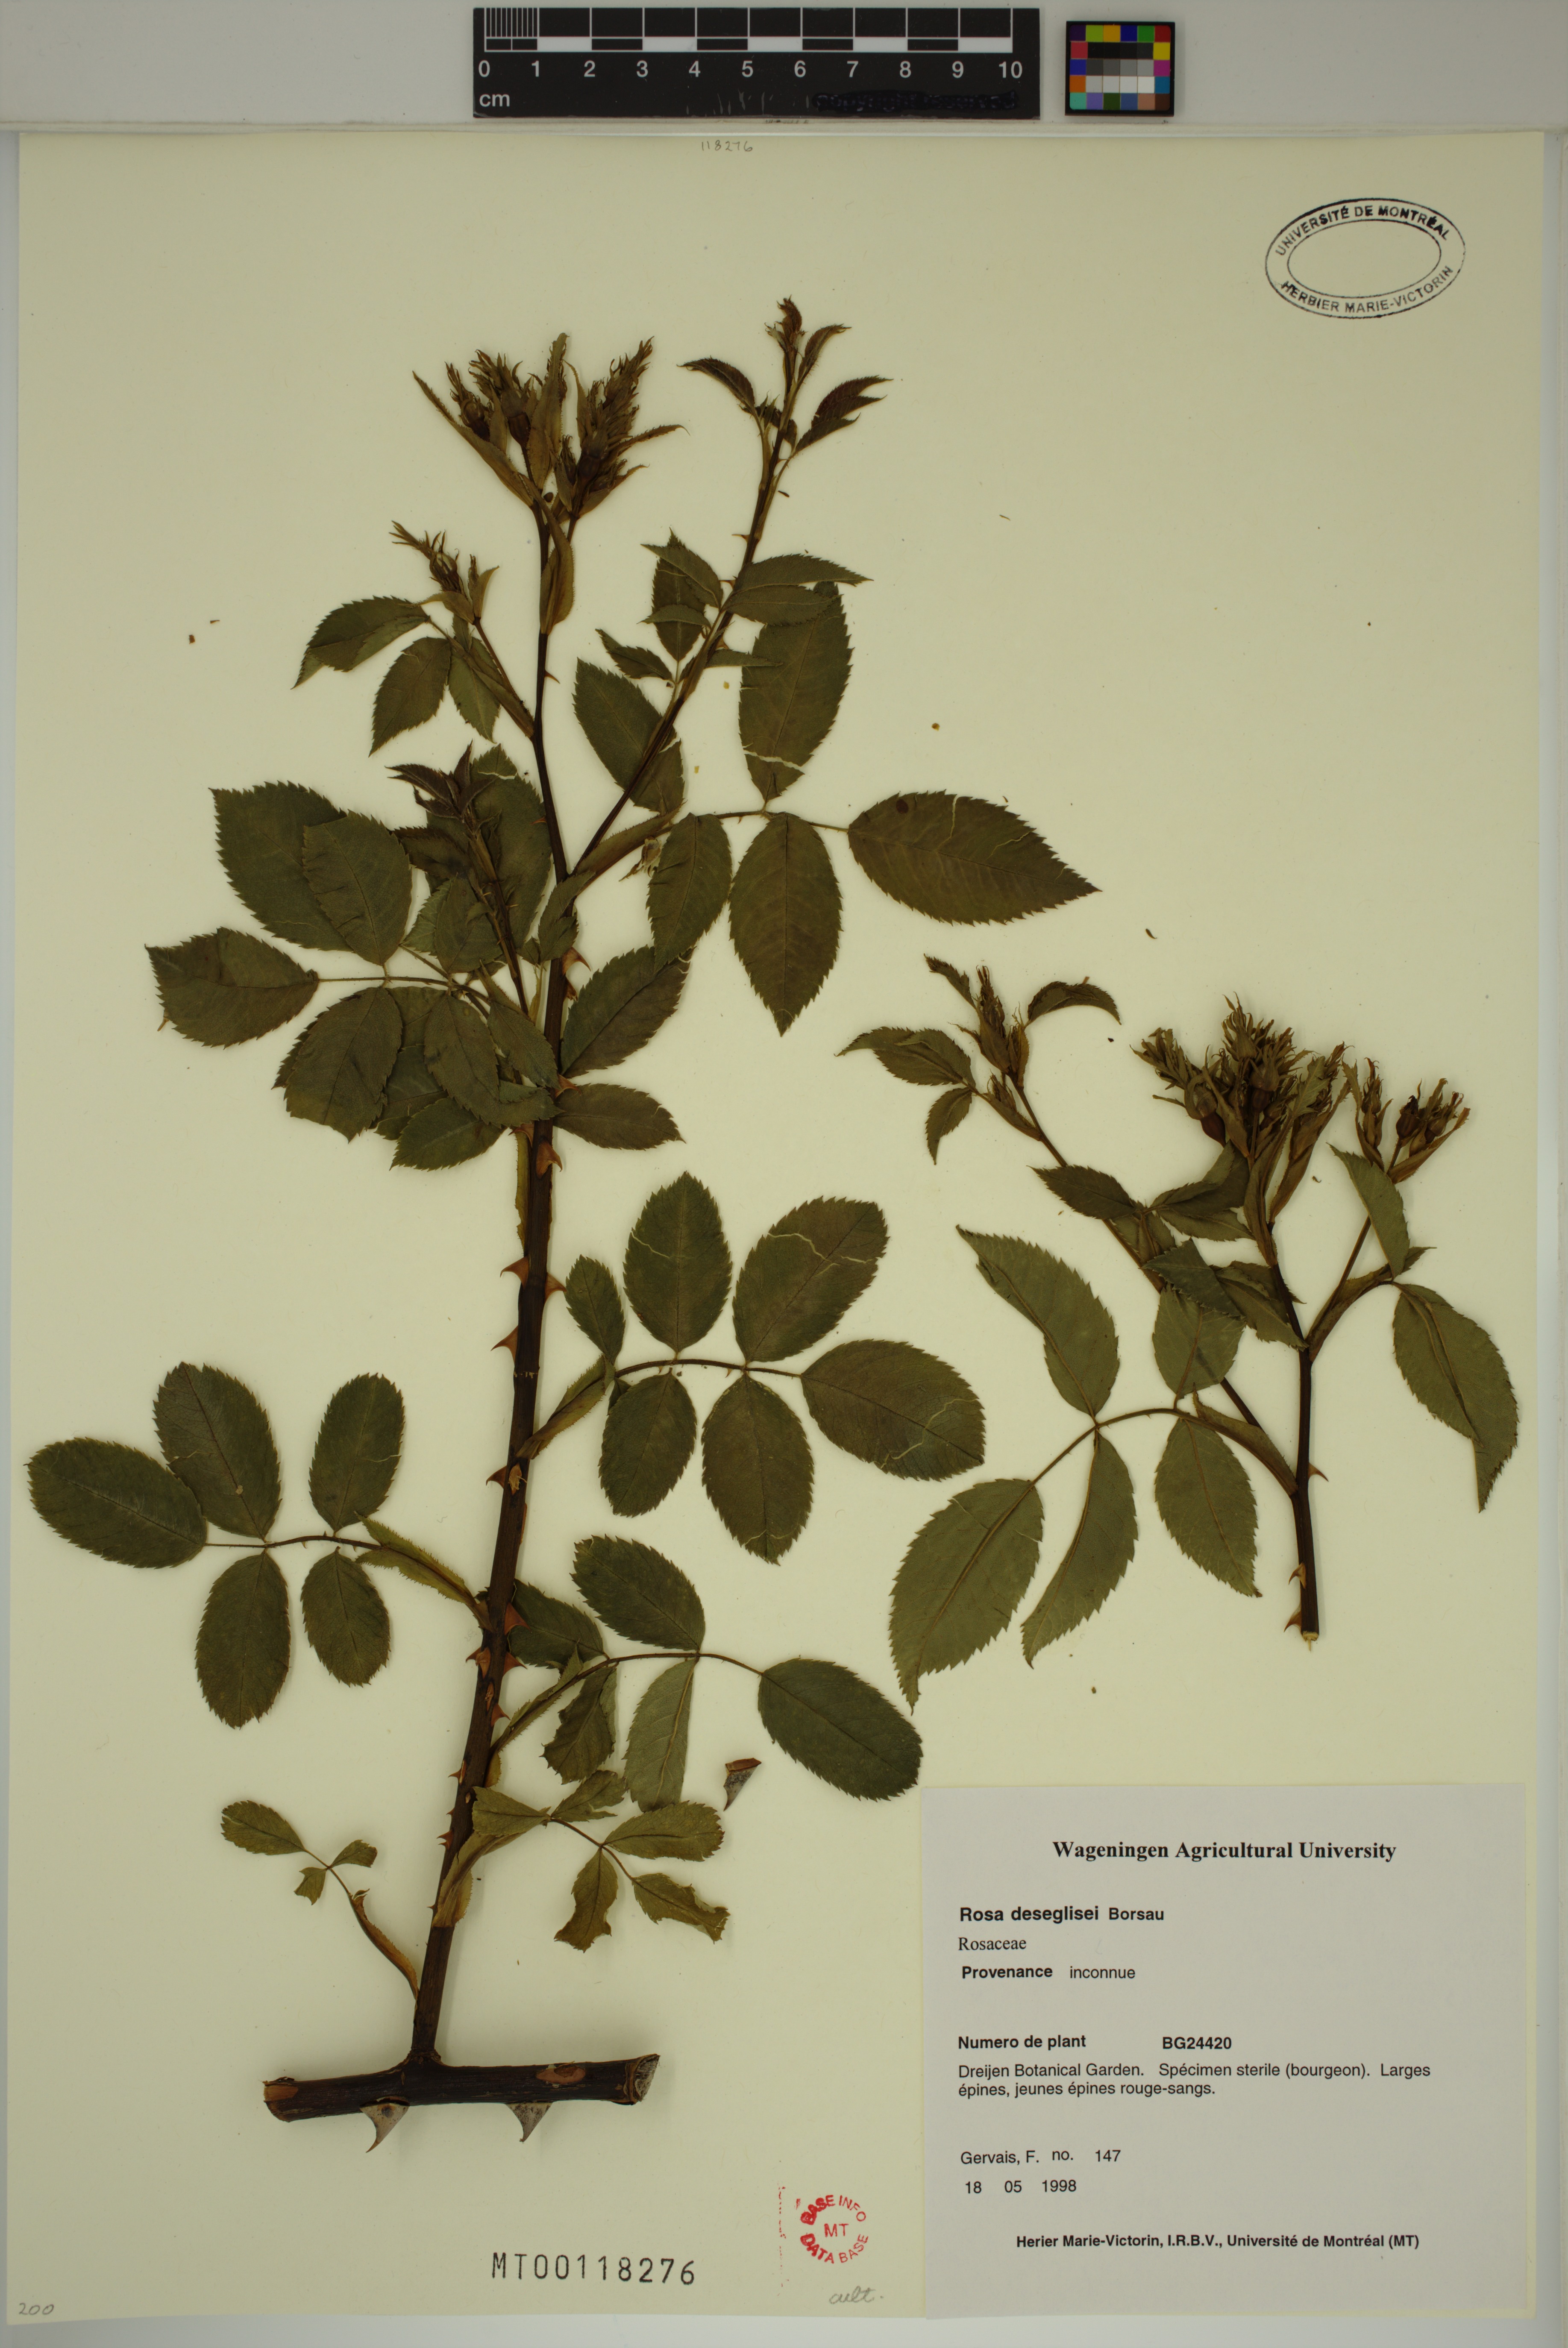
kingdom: Plantae
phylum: Tracheophyta
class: Magnoliopsida
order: Rosales
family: Rosaceae
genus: Rosa
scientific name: Rosa corymbifera
